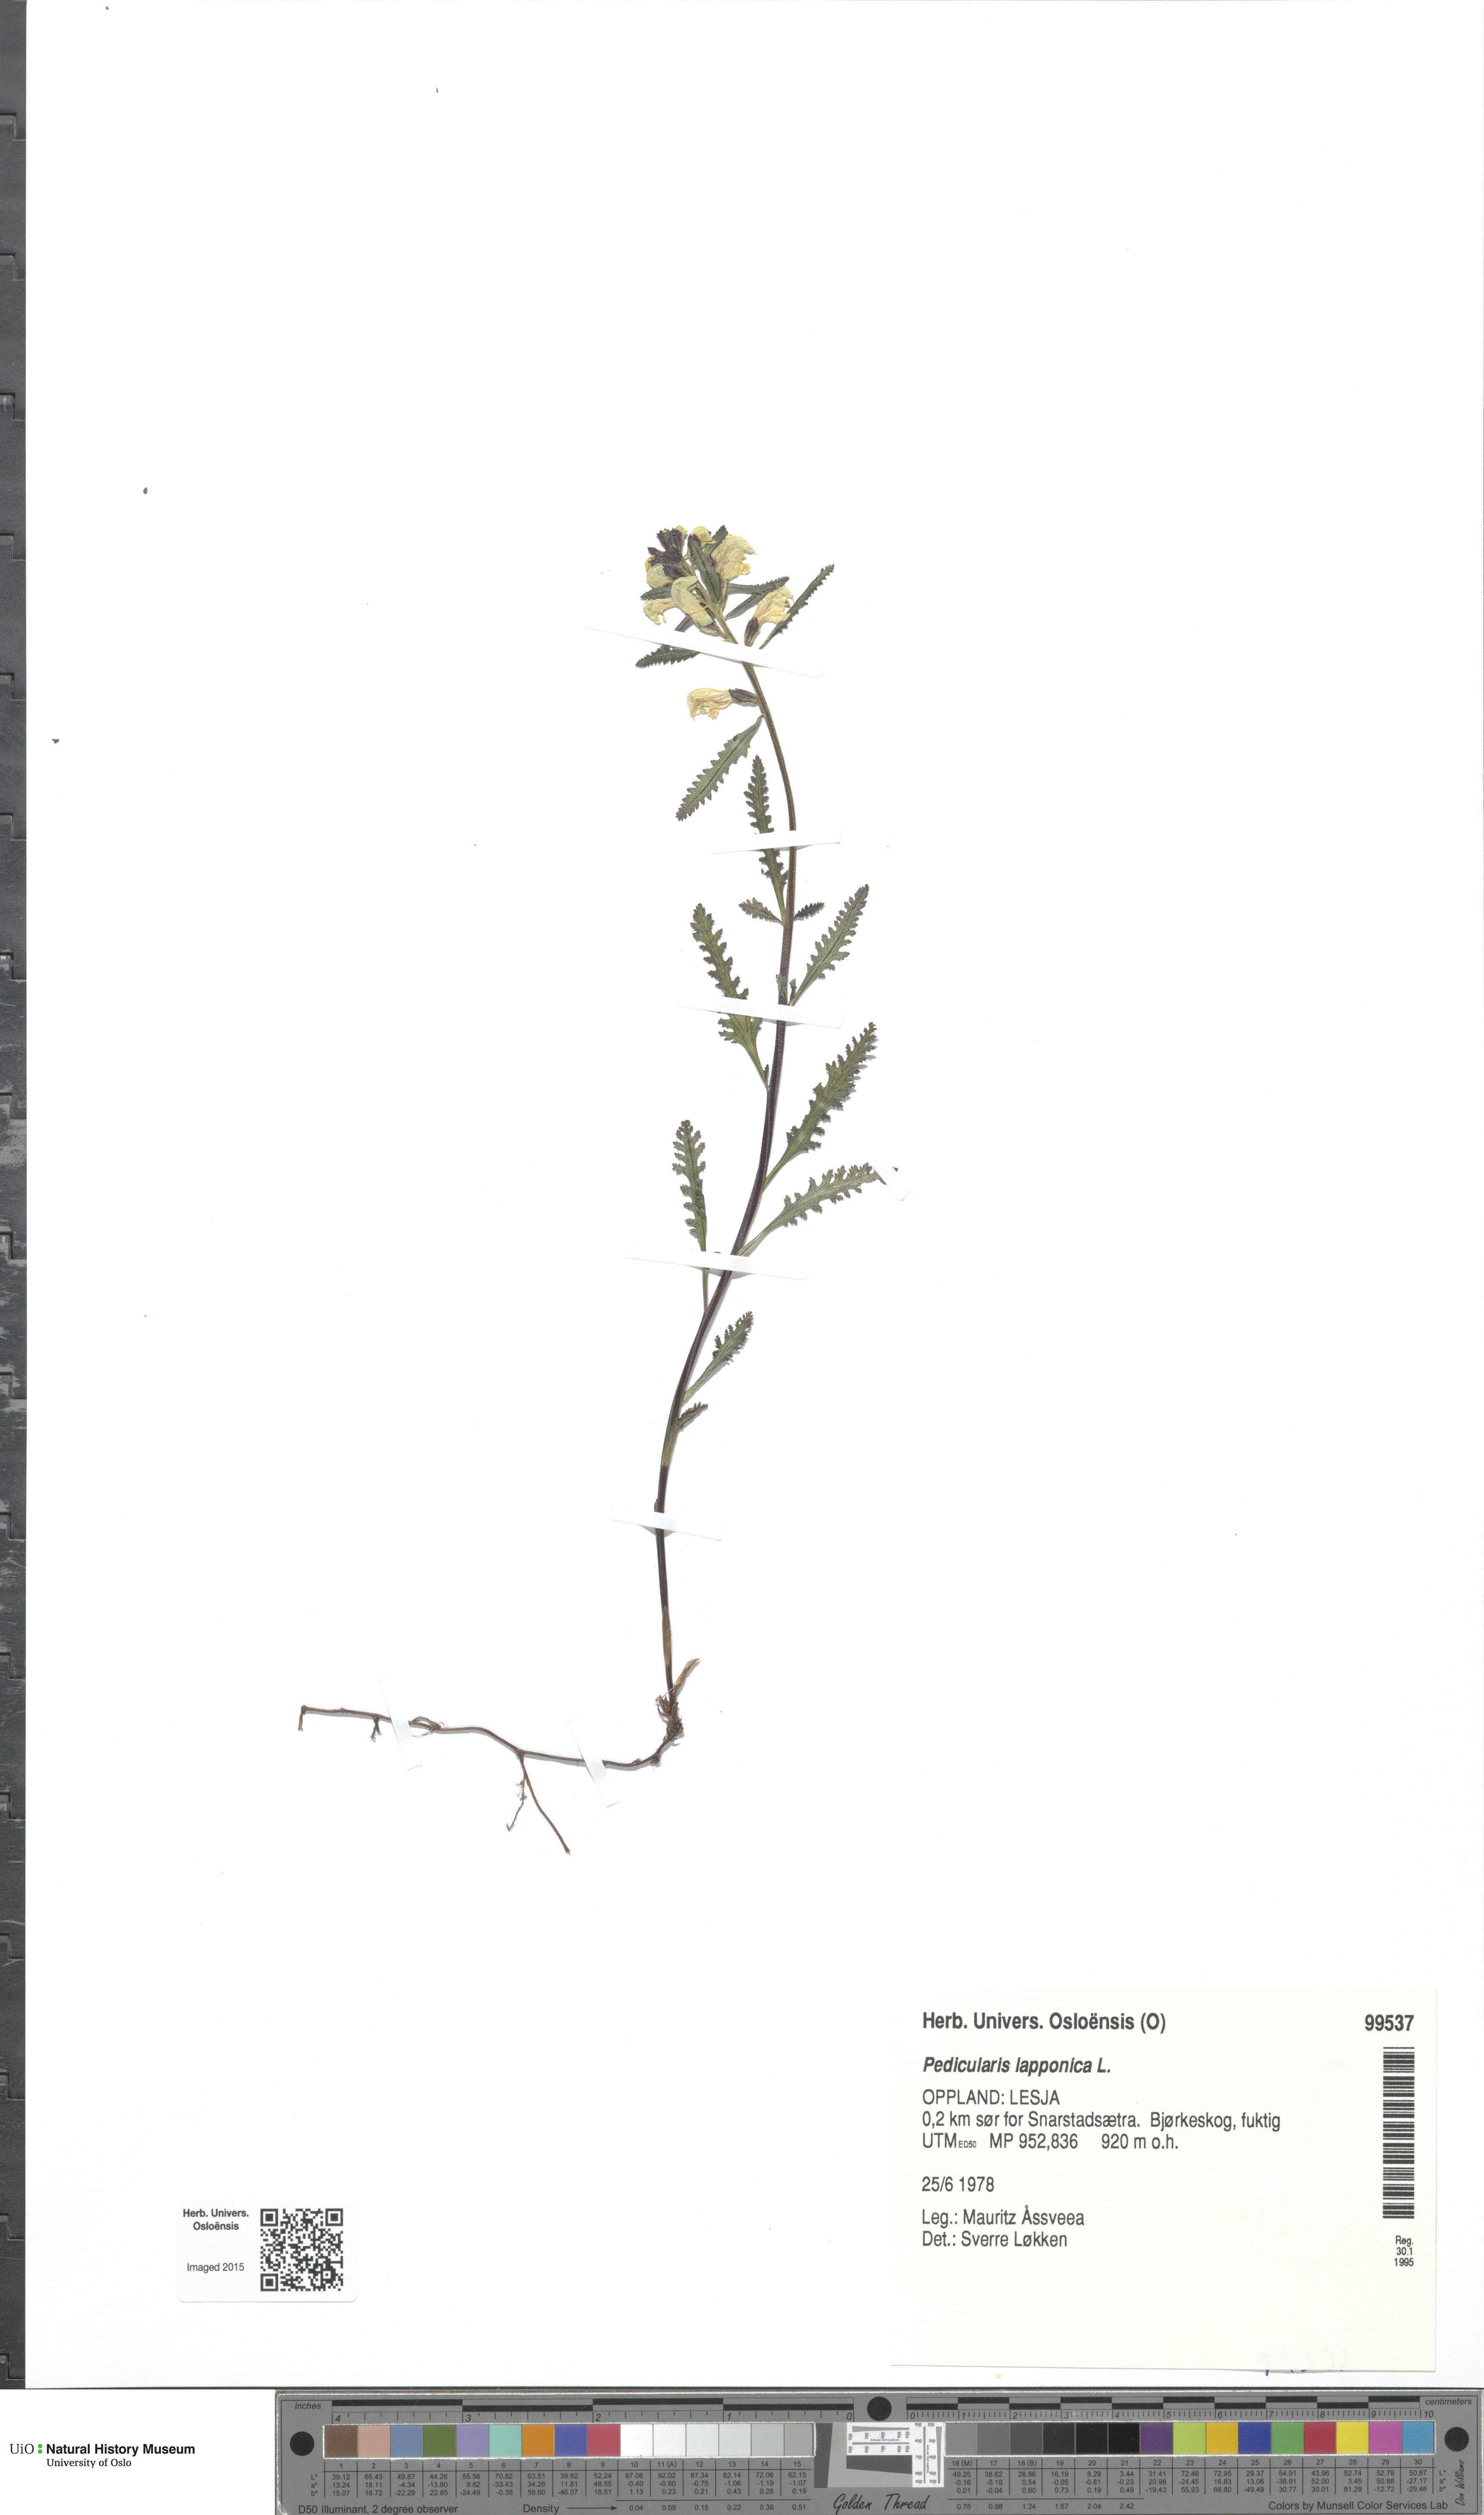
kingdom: Plantae
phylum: Tracheophyta
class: Magnoliopsida
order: Lamiales
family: Orobanchaceae
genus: Pedicularis
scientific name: Pedicularis lapponica
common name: Lapland lousewort
